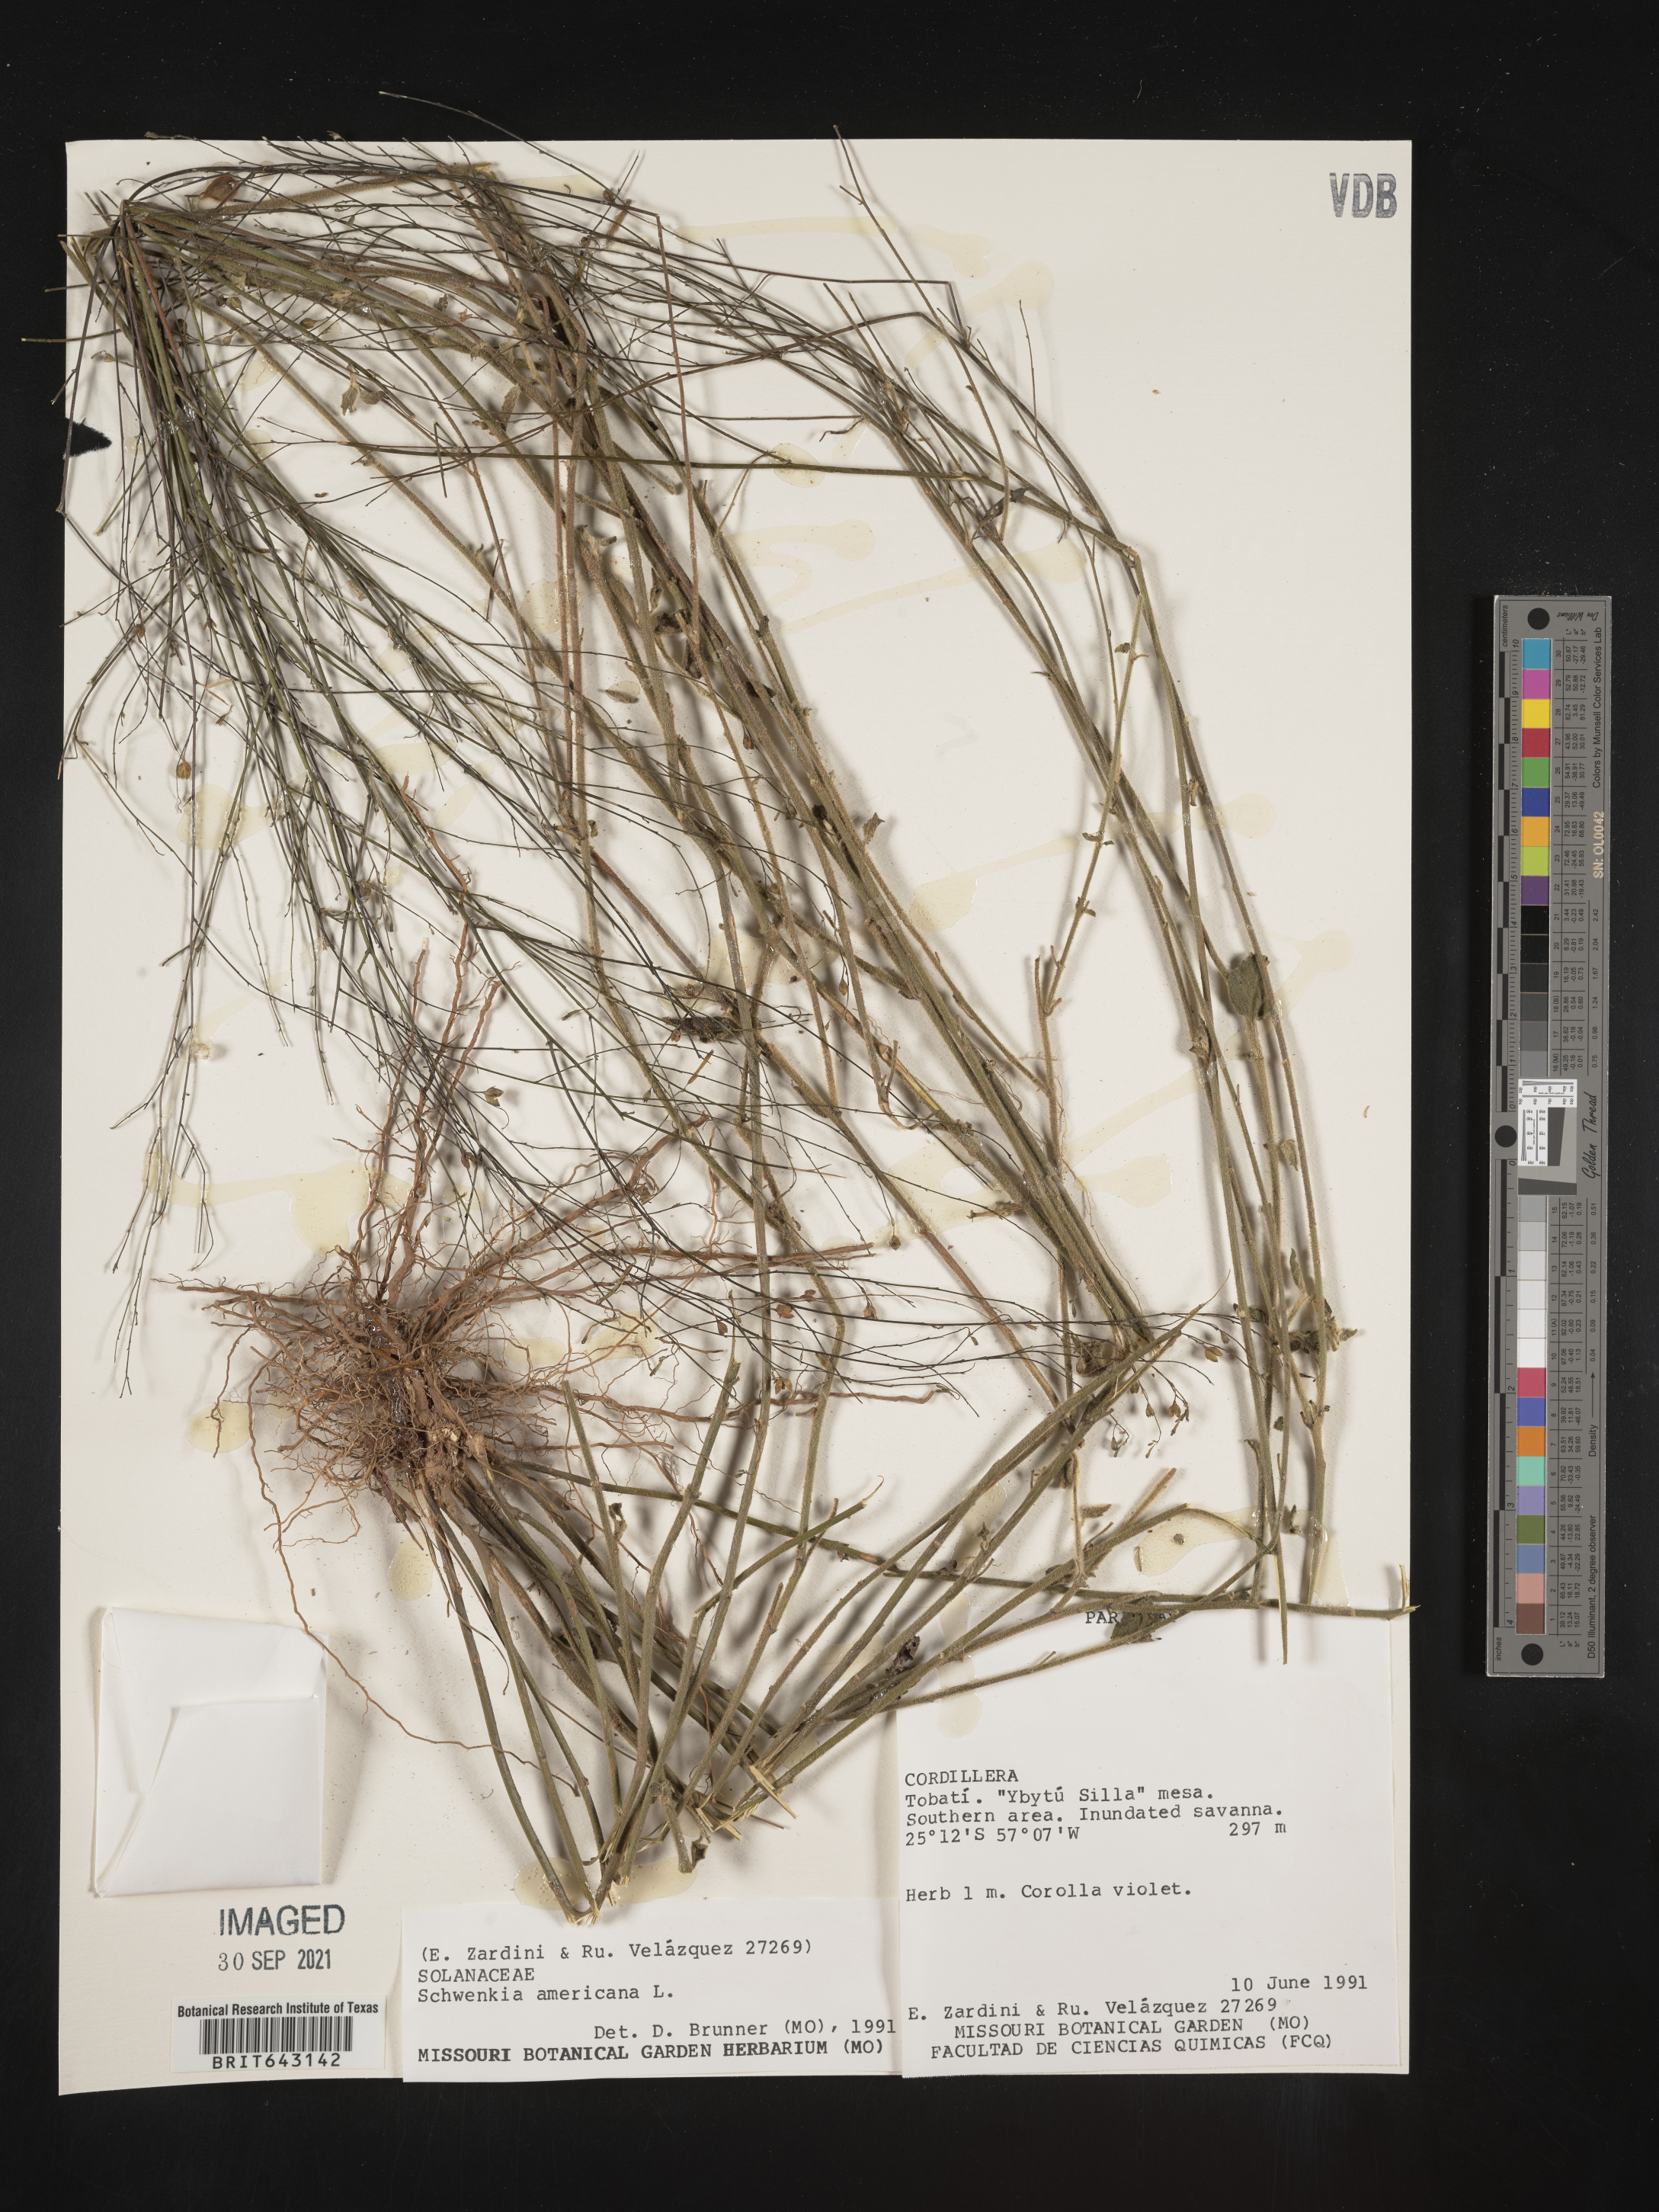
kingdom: Plantae
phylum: Tracheophyta
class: Magnoliopsida
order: Solanales
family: Solanaceae
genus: Schwenckia
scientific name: Schwenckia
